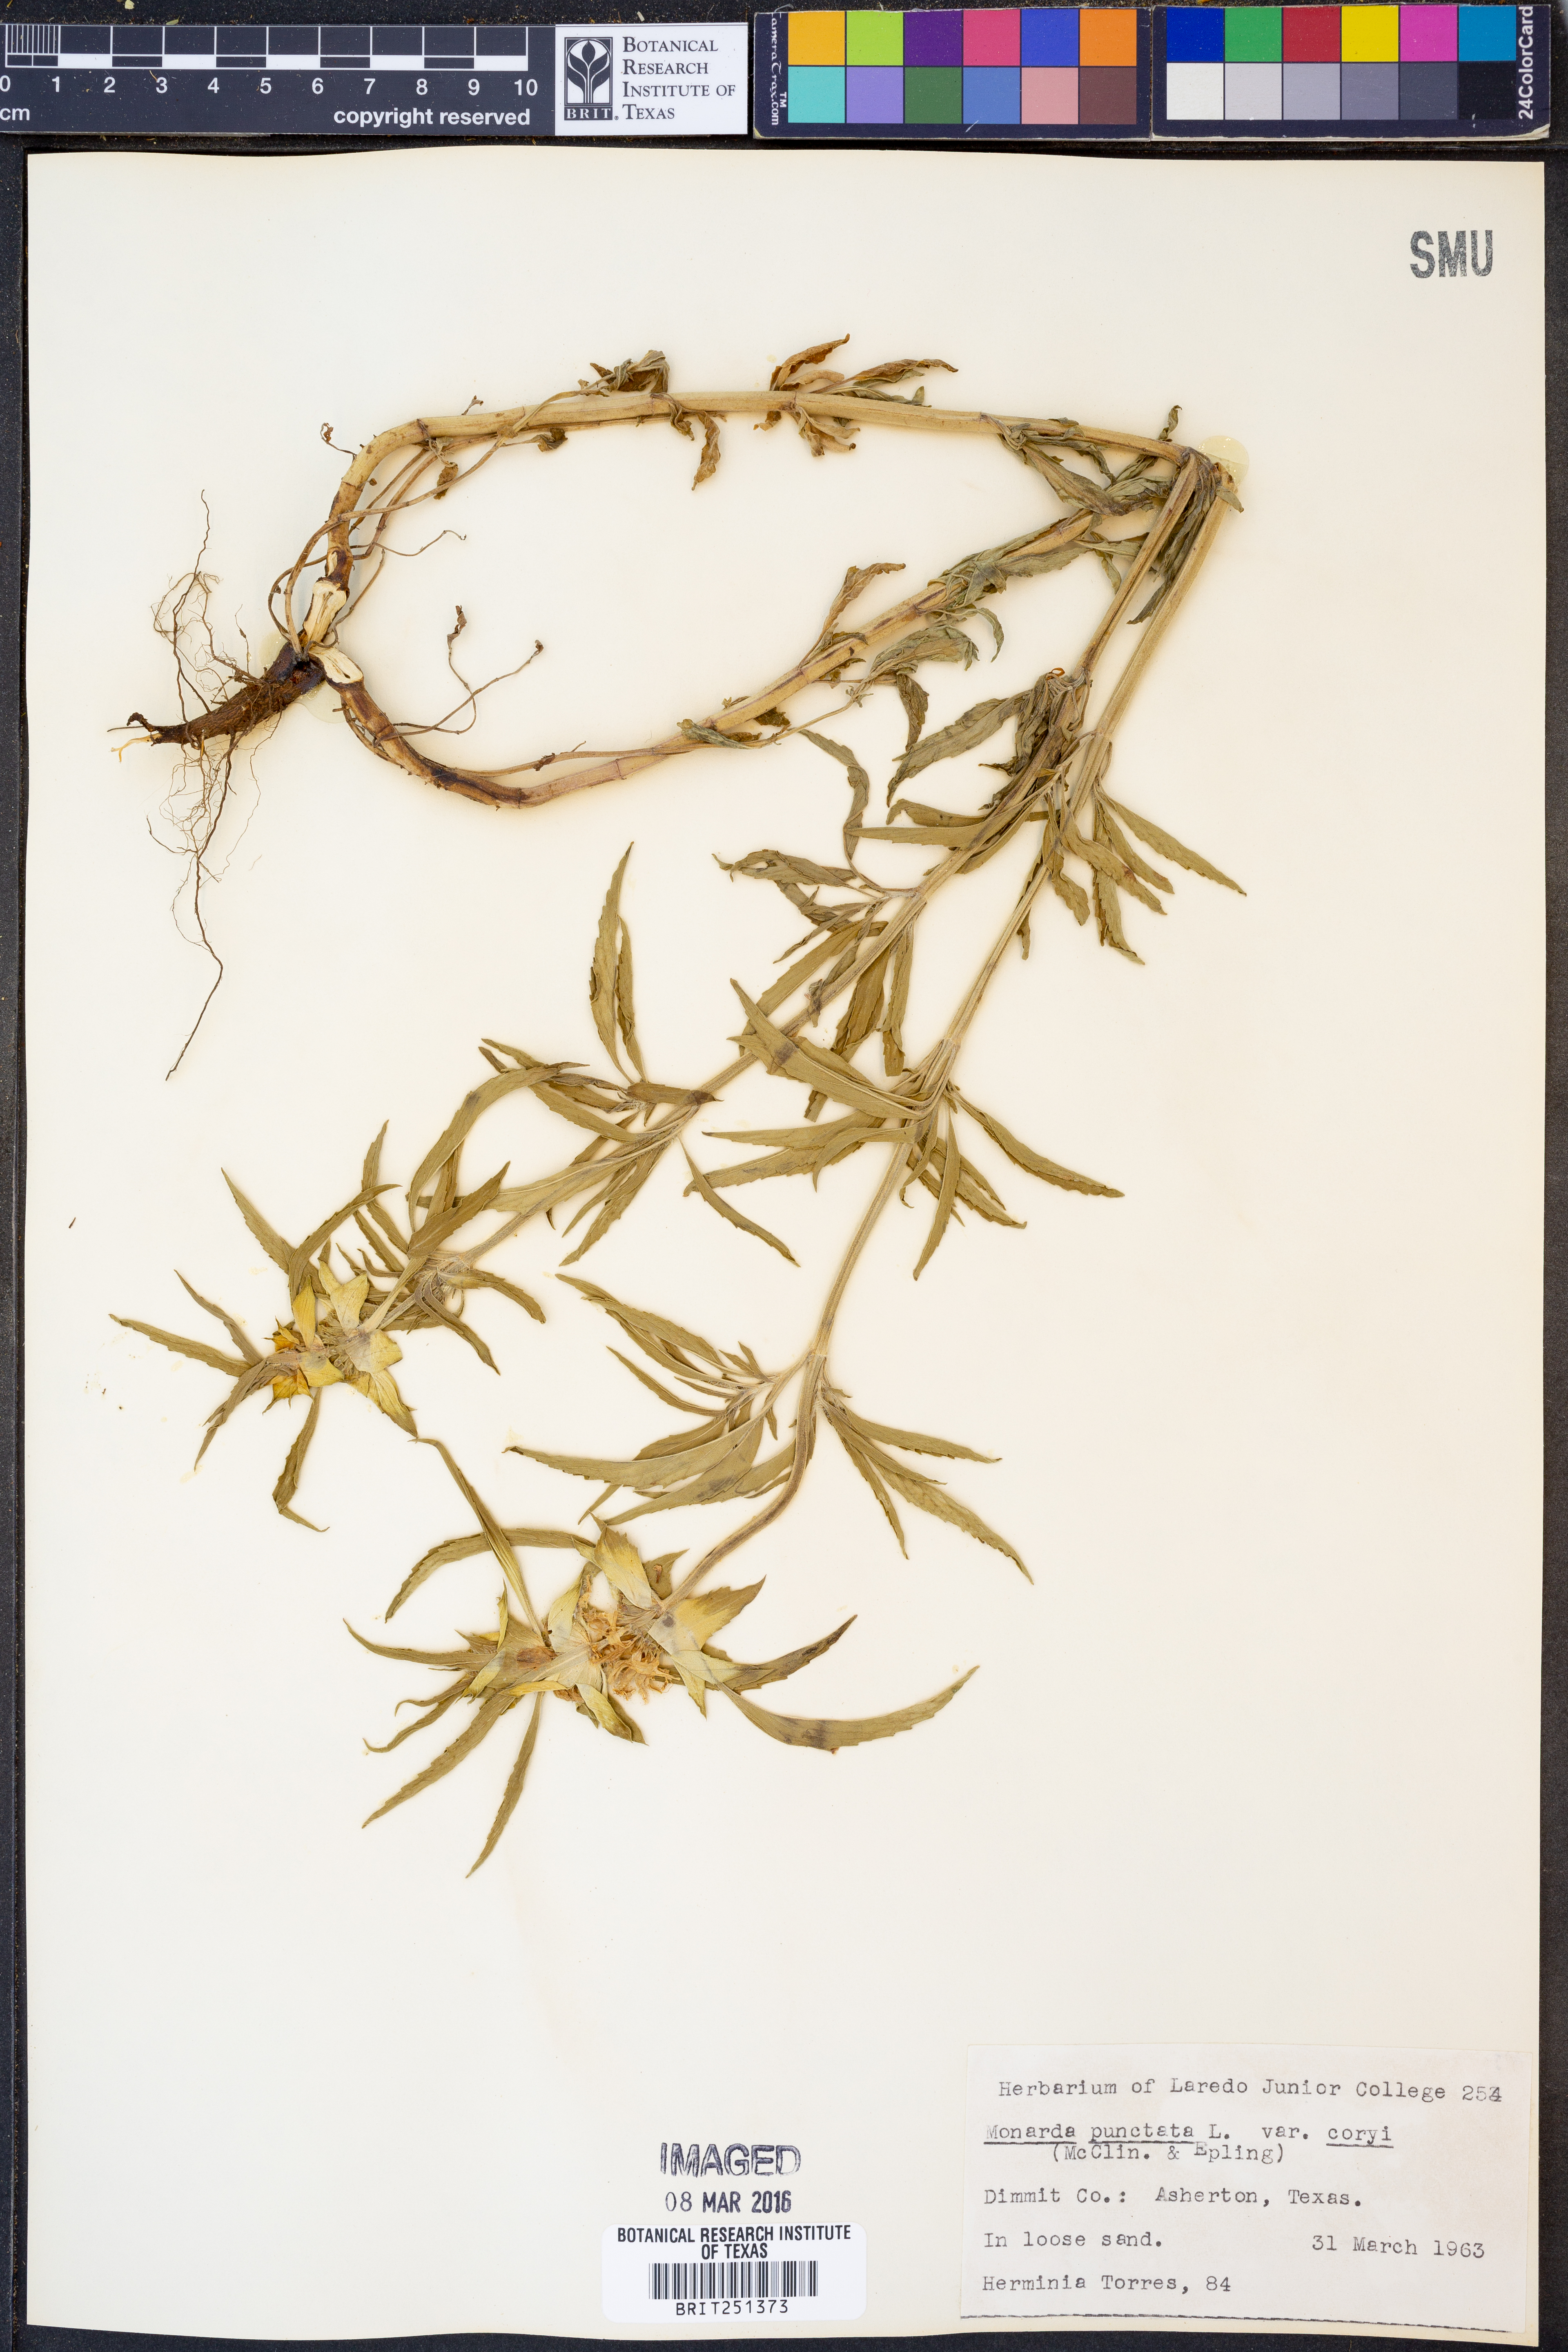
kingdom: Plantae
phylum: Tracheophyta
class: Magnoliopsida
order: Lamiales
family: Lamiaceae
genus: Monarda
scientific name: Monarda punctata
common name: Dotted monarda
